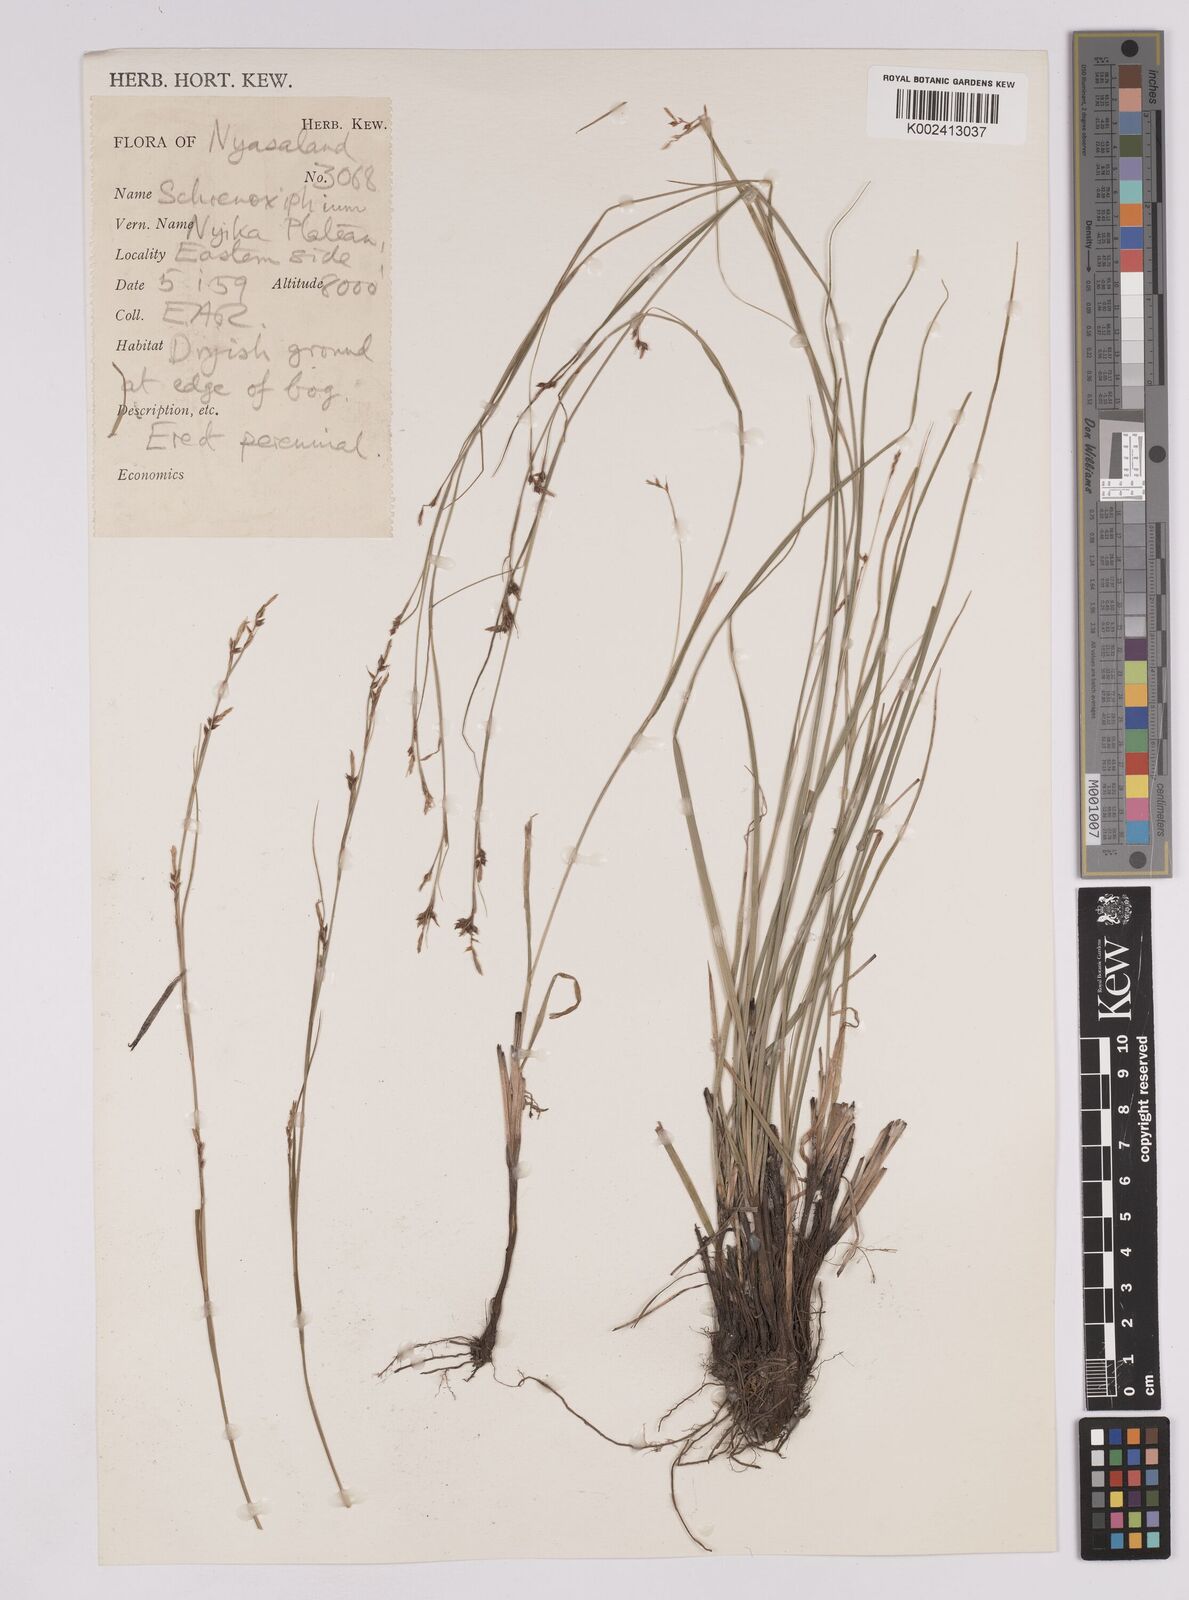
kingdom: Plantae
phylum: Tracheophyta
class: Liliopsida
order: Poales
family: Cyperaceae
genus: Carex
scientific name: Carex schimperiana
